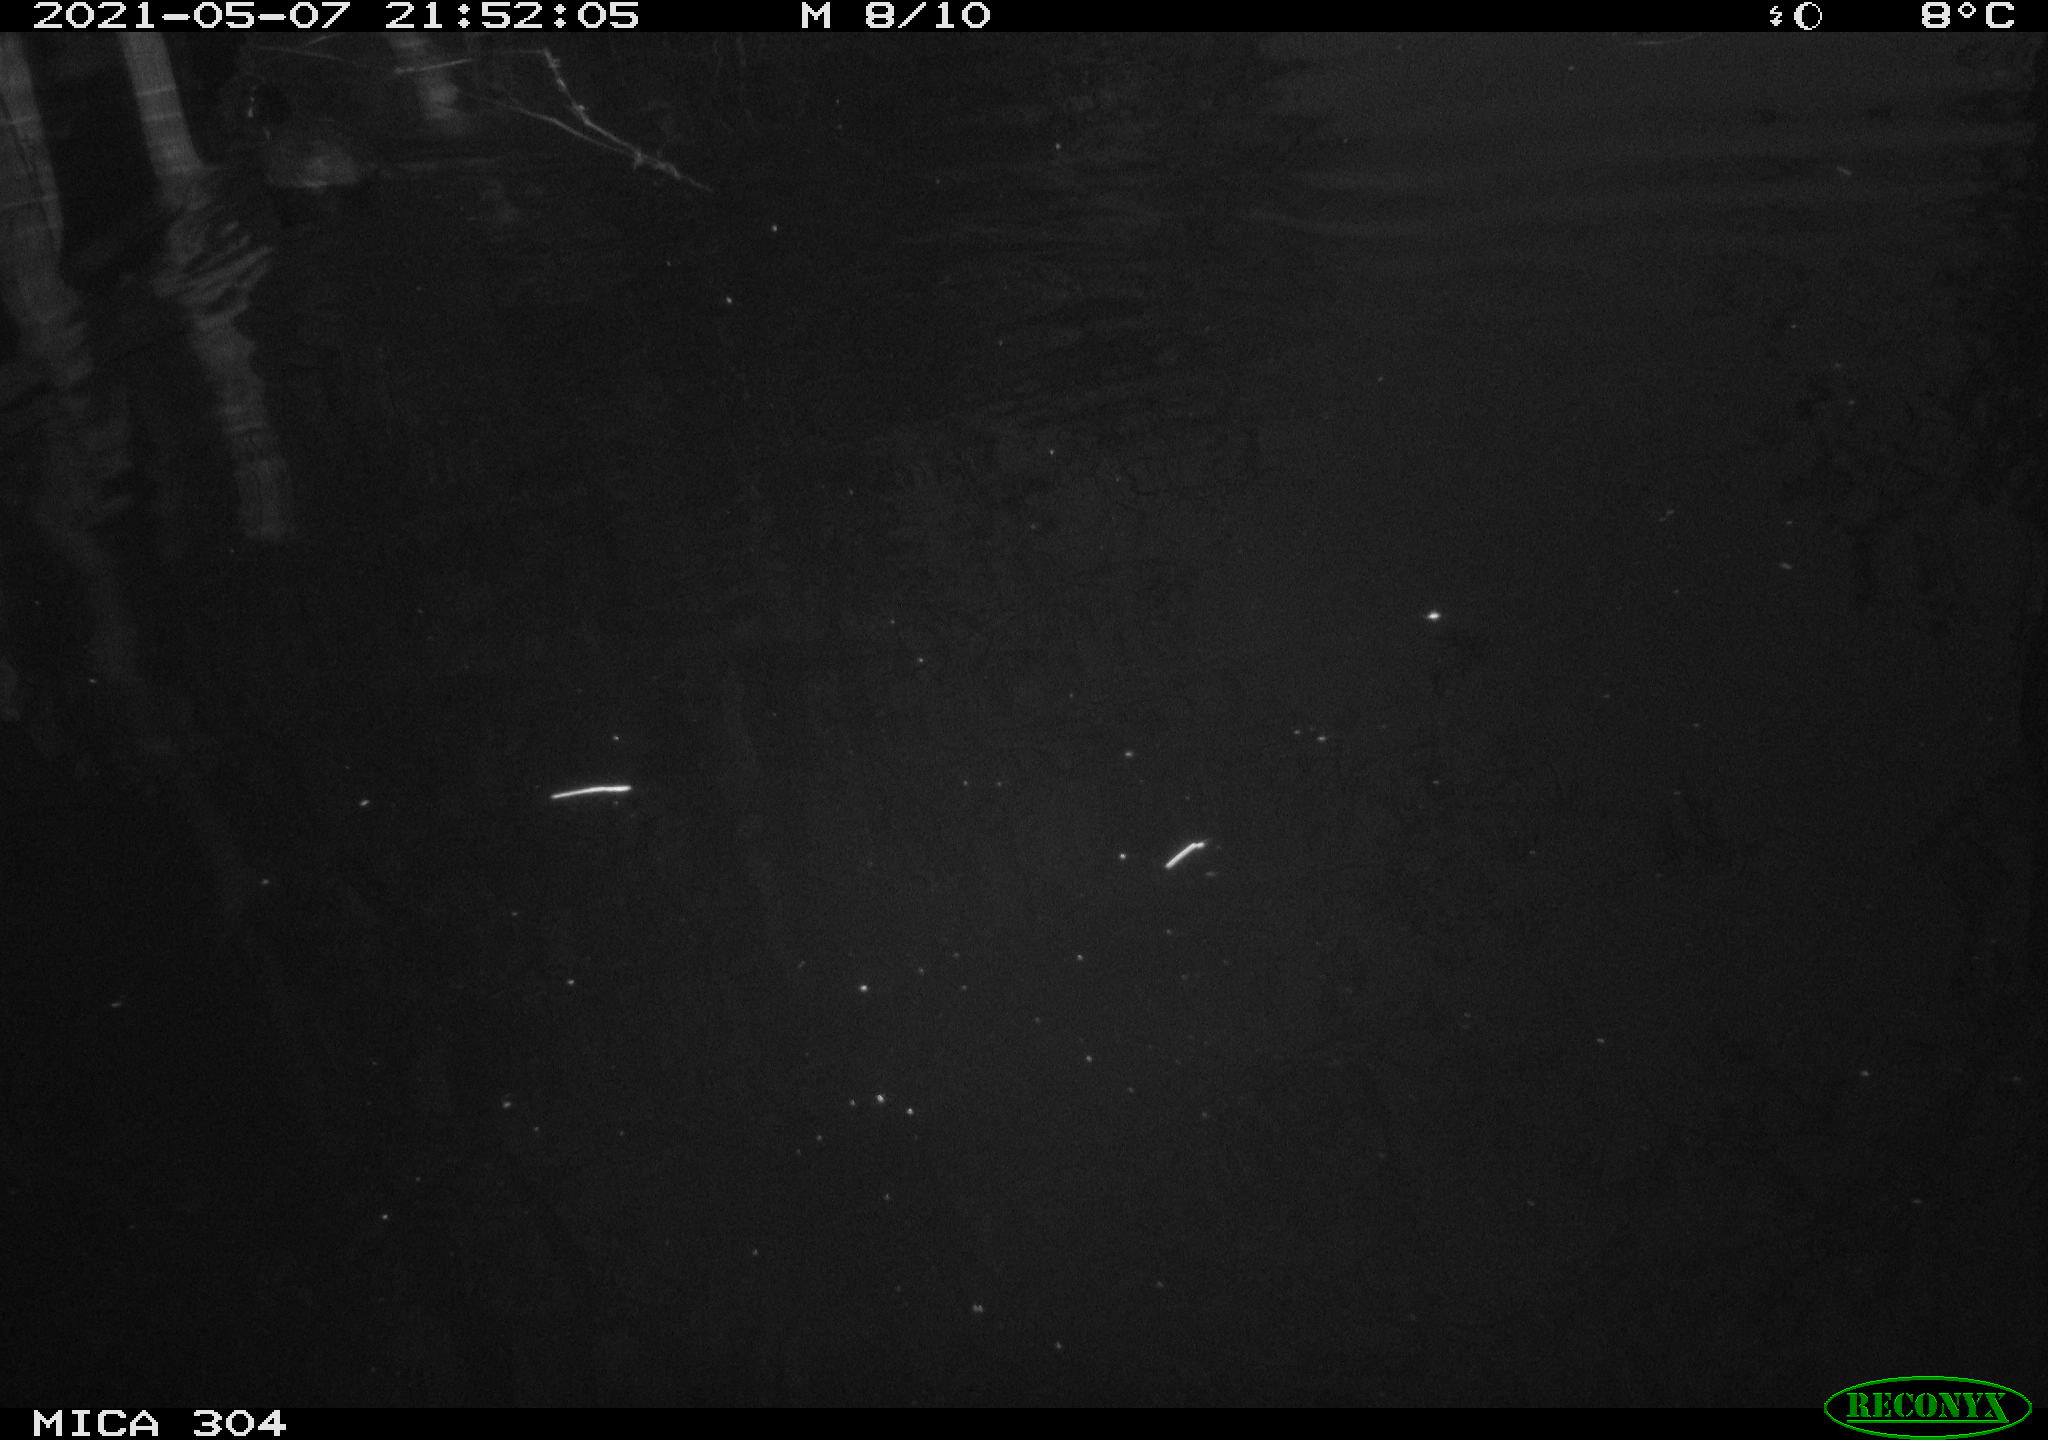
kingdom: Animalia
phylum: Chordata
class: Aves
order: Gruiformes
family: Rallidae
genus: Fulica
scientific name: Fulica atra
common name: Eurasian coot
